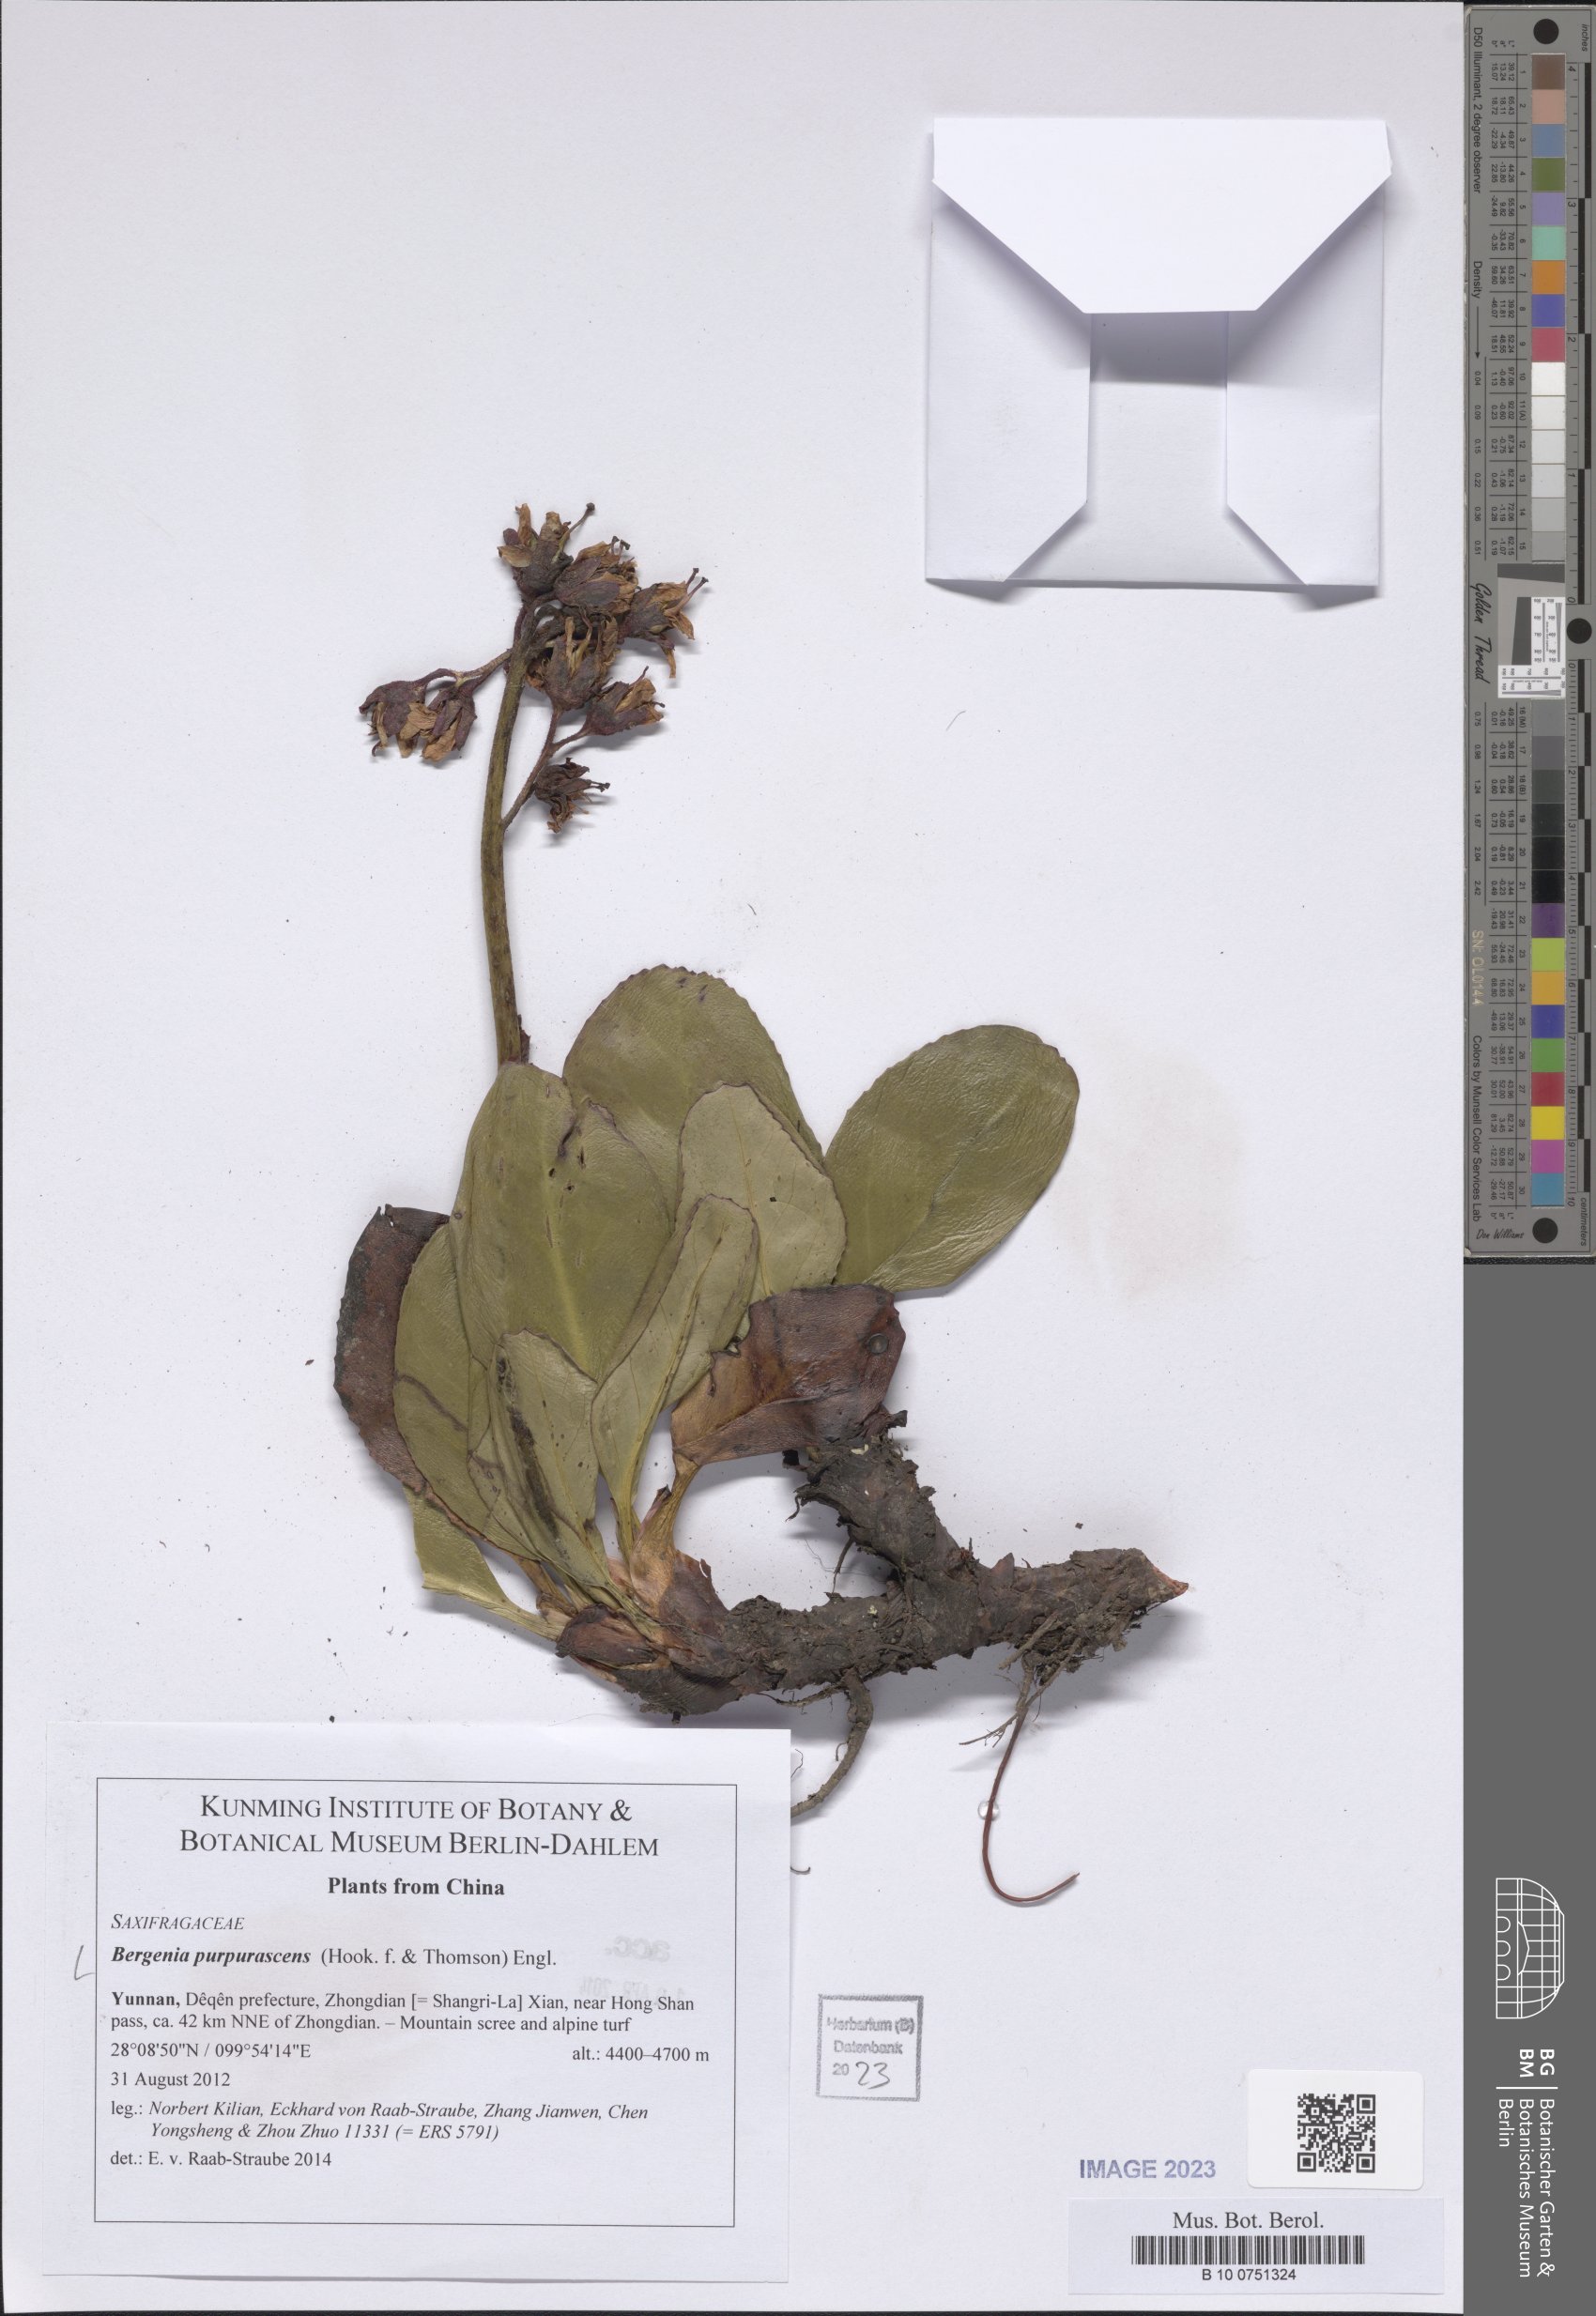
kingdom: Plantae
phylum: Tracheophyta
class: Magnoliopsida
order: Saxifragales
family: Saxifragaceae
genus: Bergenia
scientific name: Bergenia purpurascens
